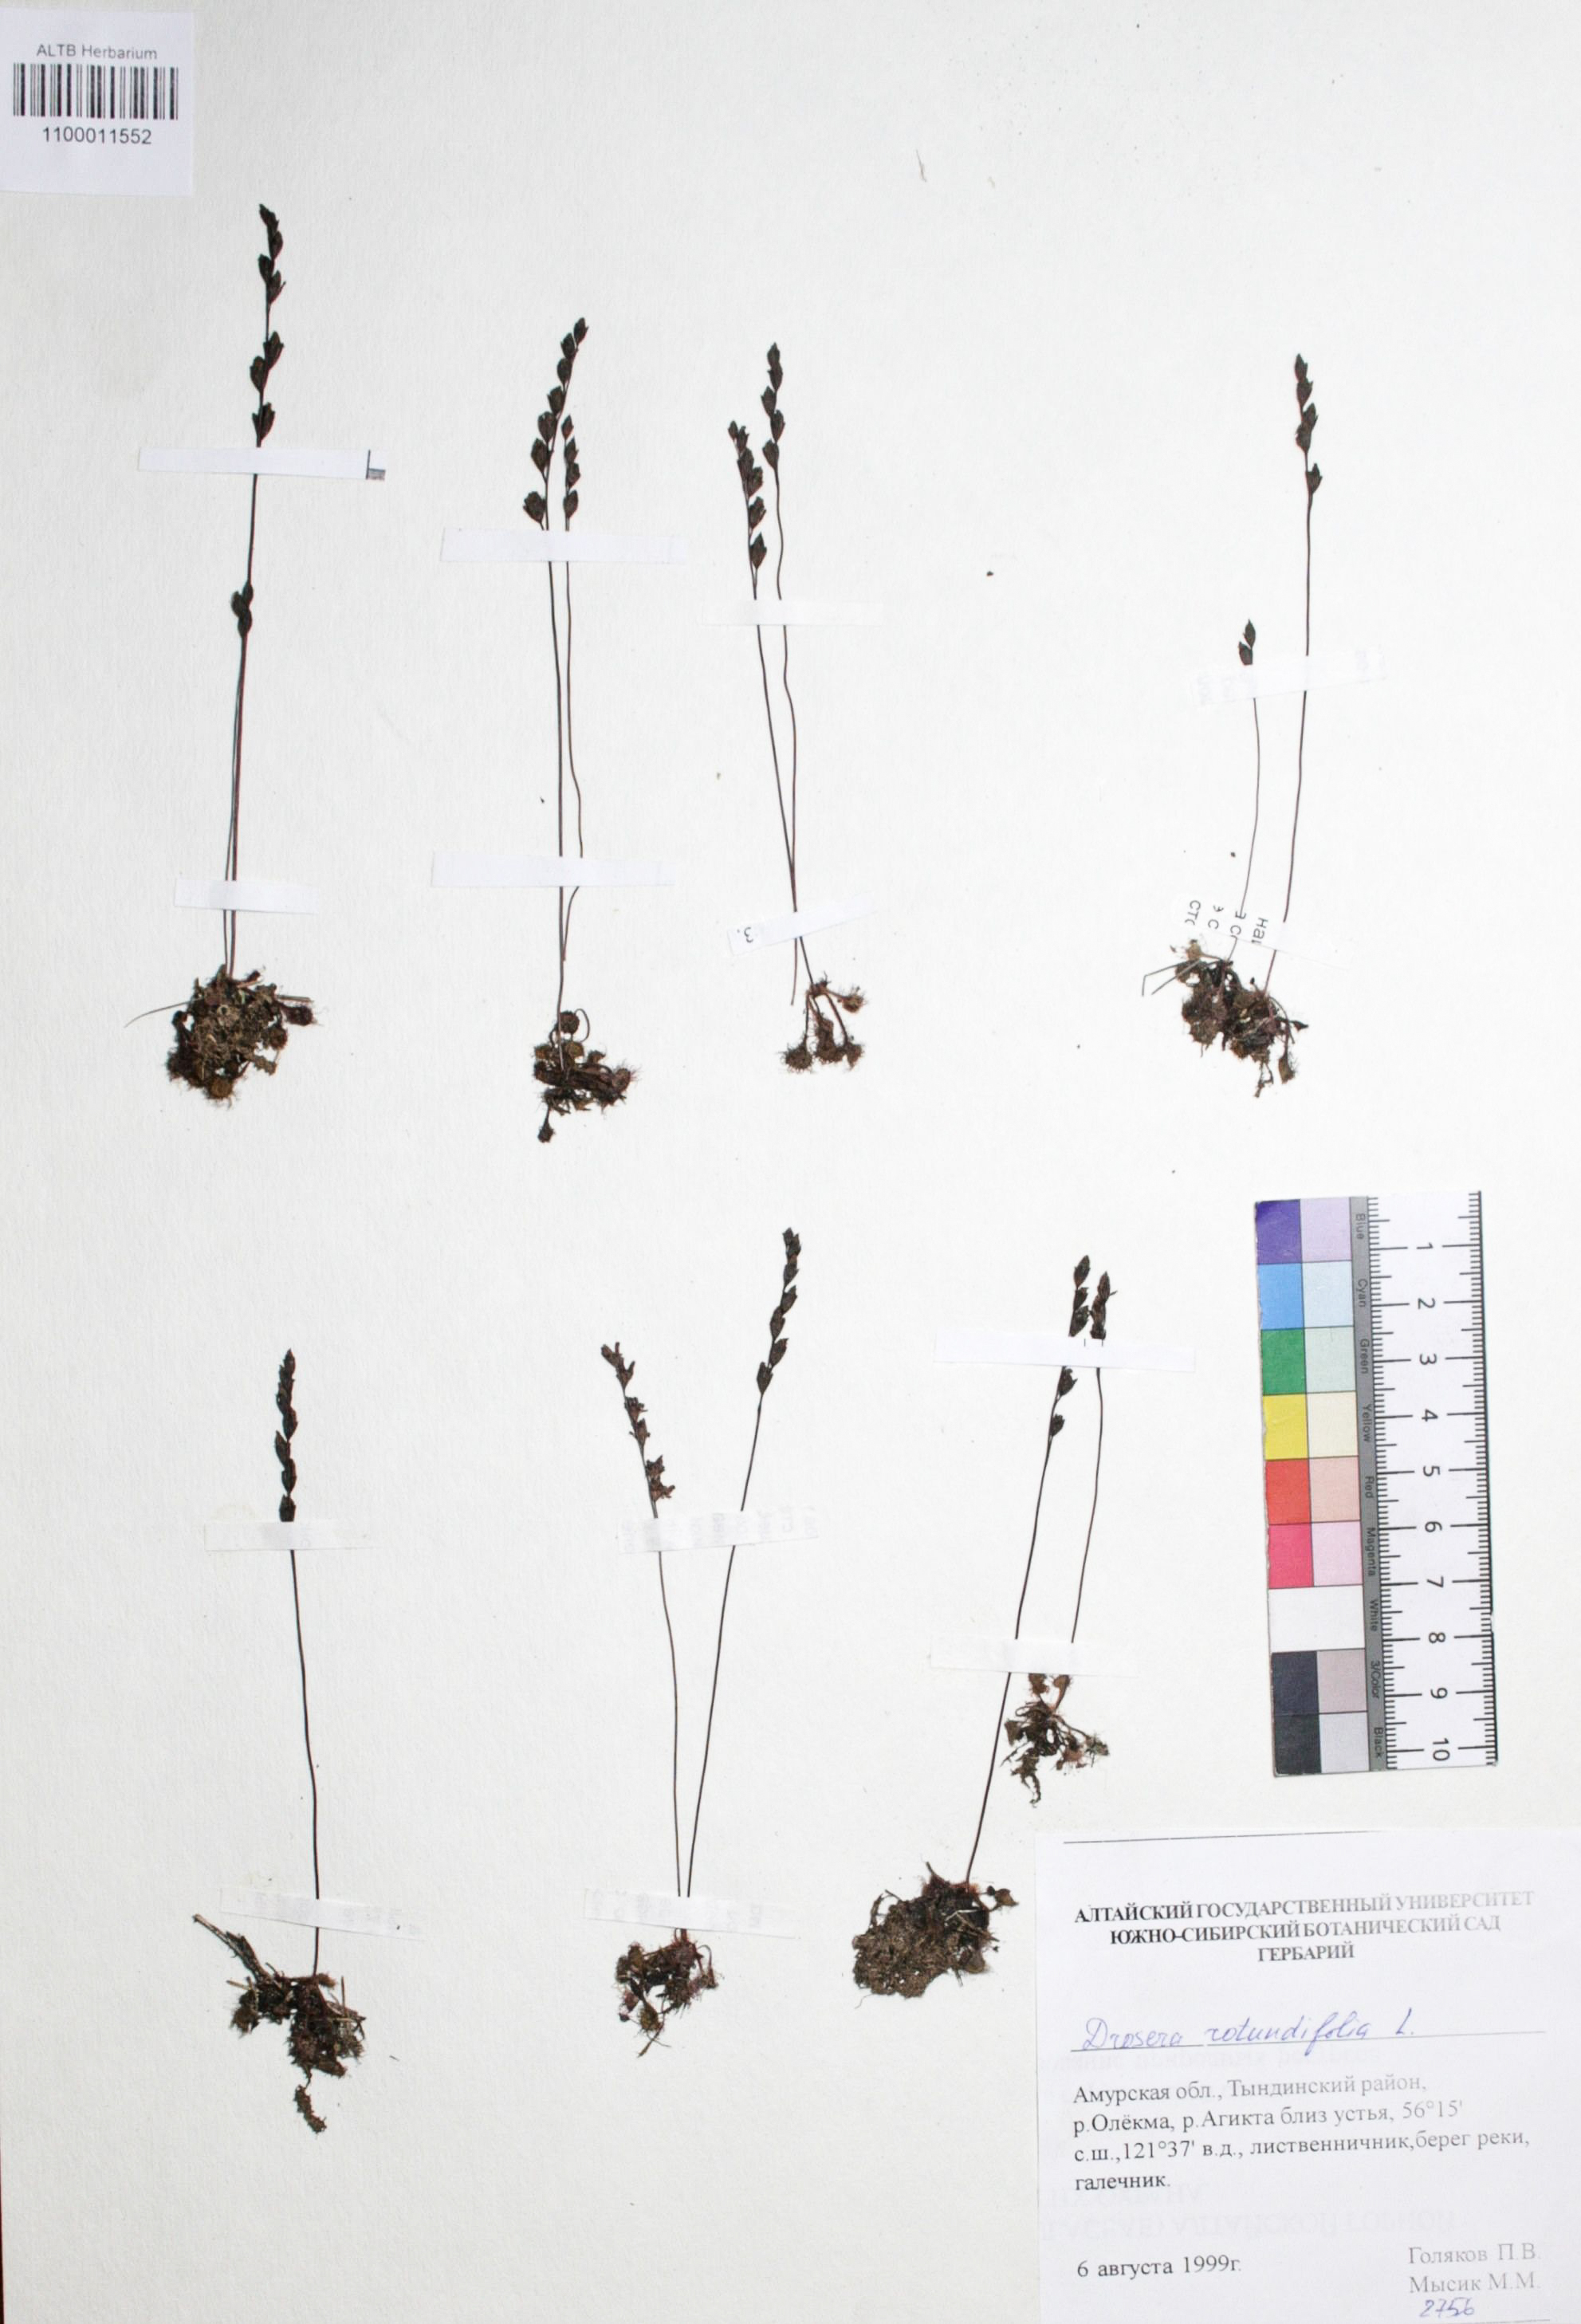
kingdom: Plantae
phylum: Tracheophyta
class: Magnoliopsida
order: Caryophyllales
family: Droseraceae
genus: Drosera
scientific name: Drosera rotundifolia
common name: Round-leaved sundew
